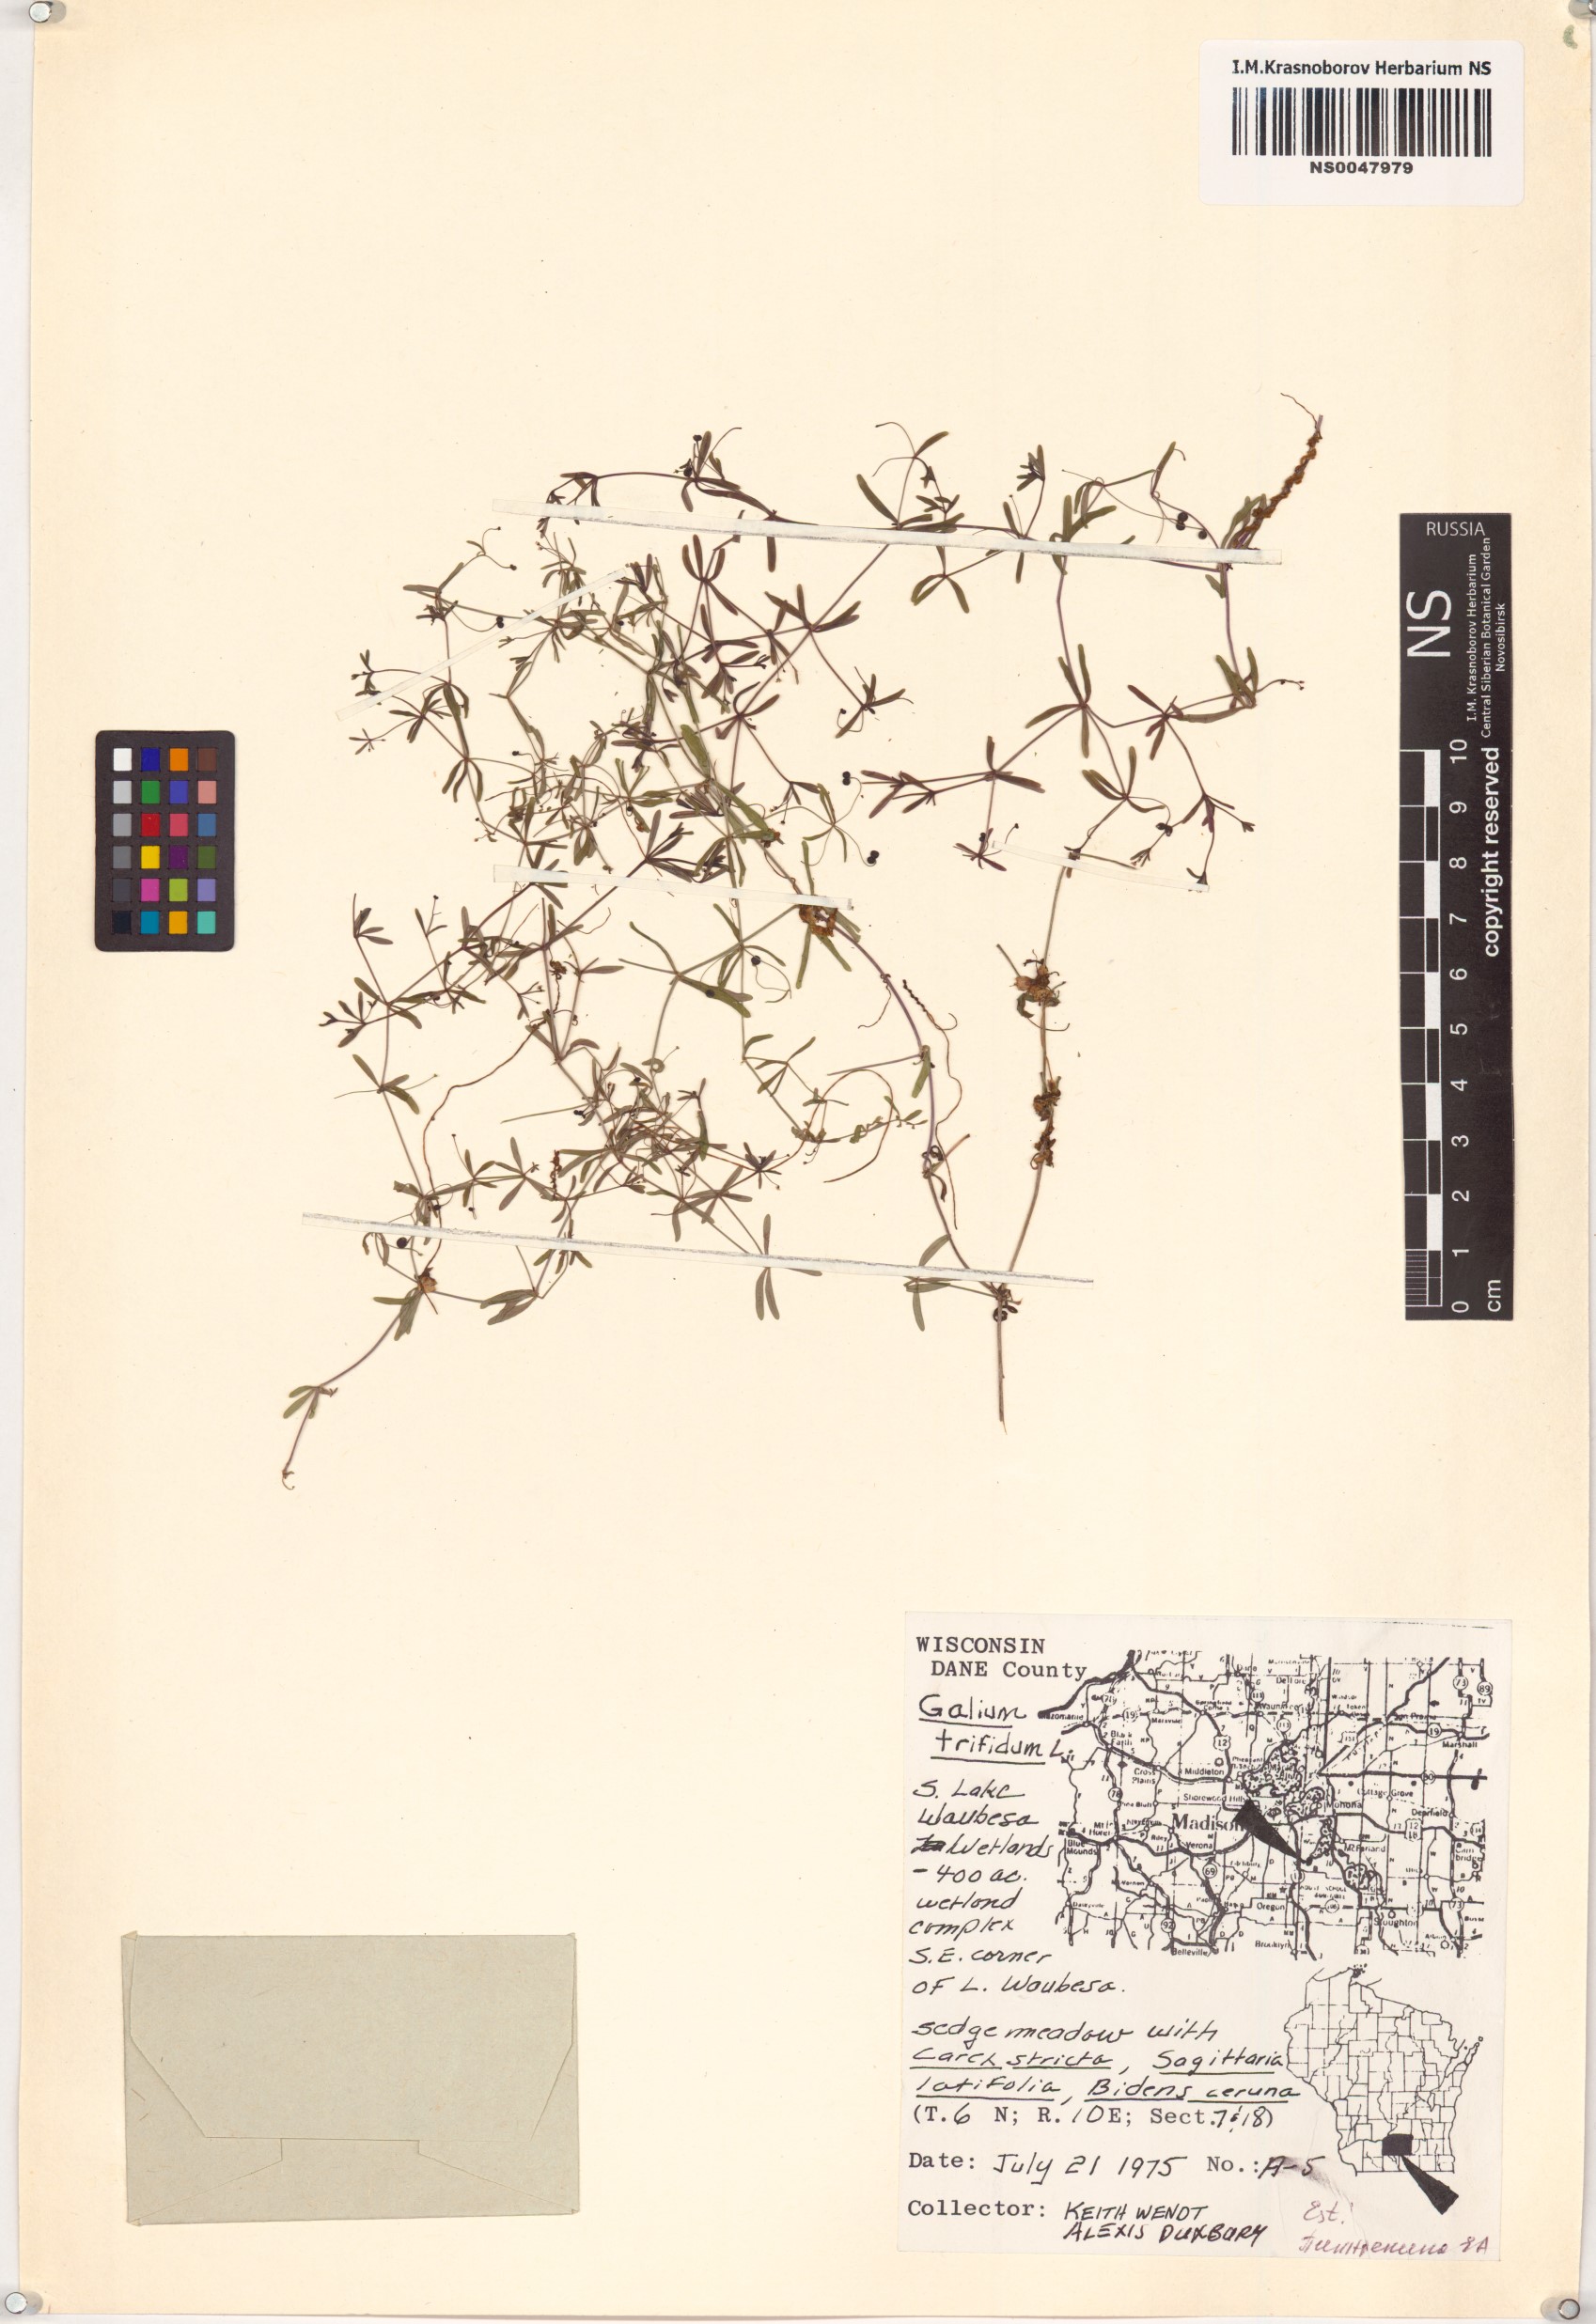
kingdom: Plantae
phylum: Tracheophyta
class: Magnoliopsida
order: Gentianales
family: Rubiaceae
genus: Galium
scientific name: Galium trifidum
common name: Small bedstraw
